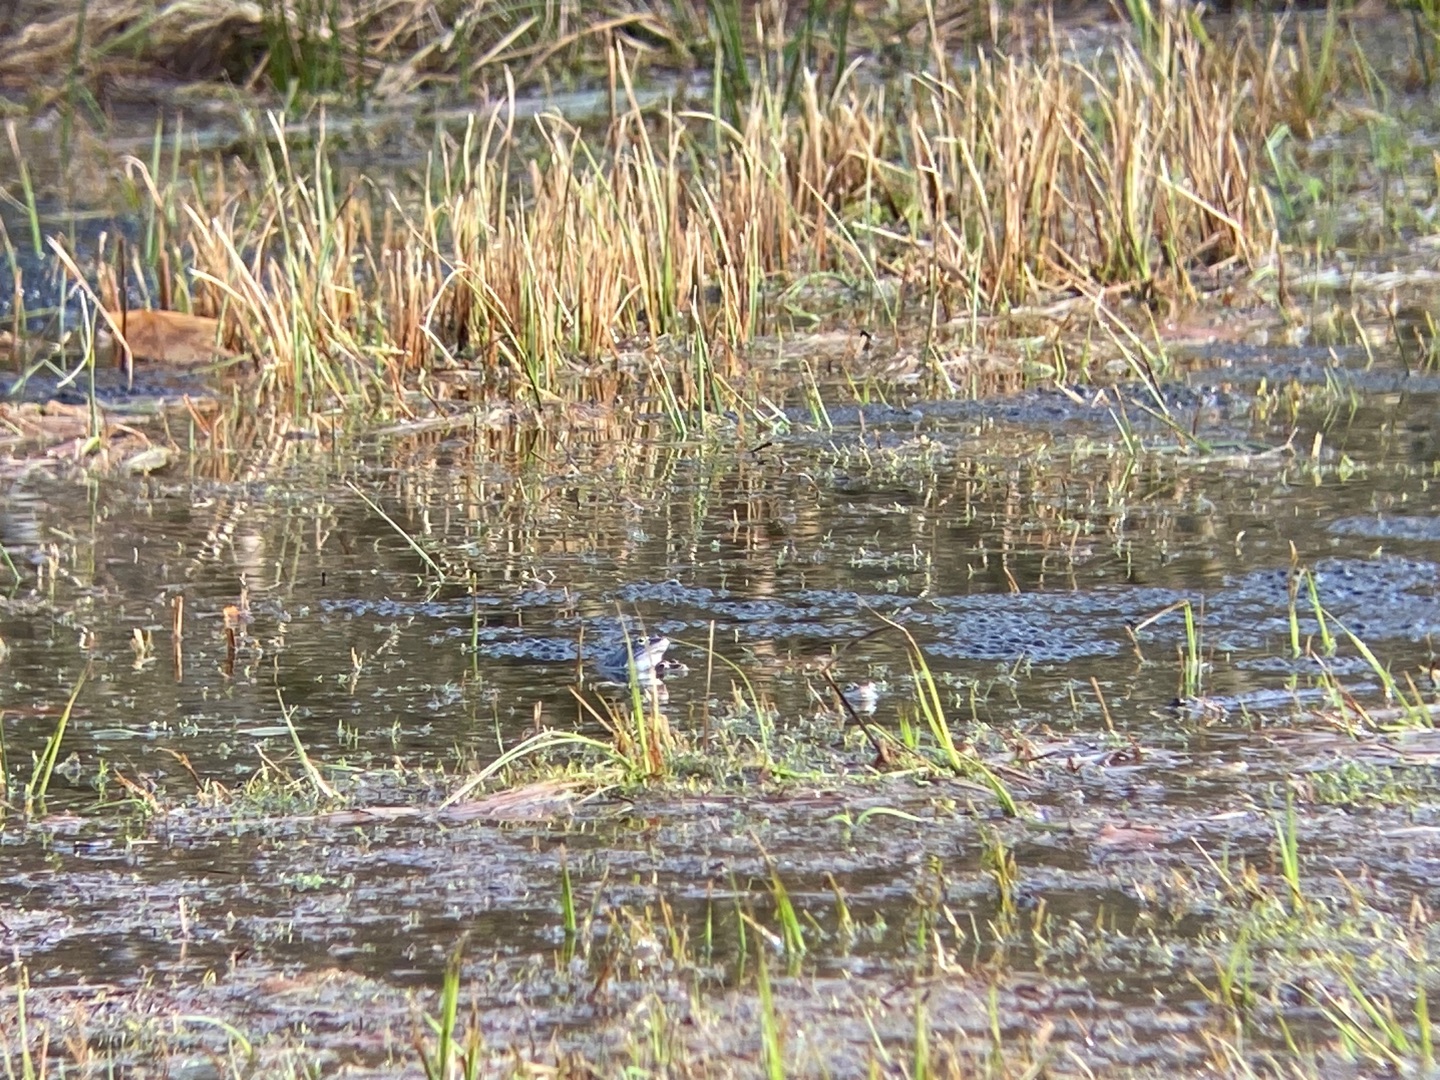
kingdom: Animalia
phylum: Chordata
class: Amphibia
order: Anura
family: Ranidae
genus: Rana
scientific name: Rana arvalis
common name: Spidssnudet frø
